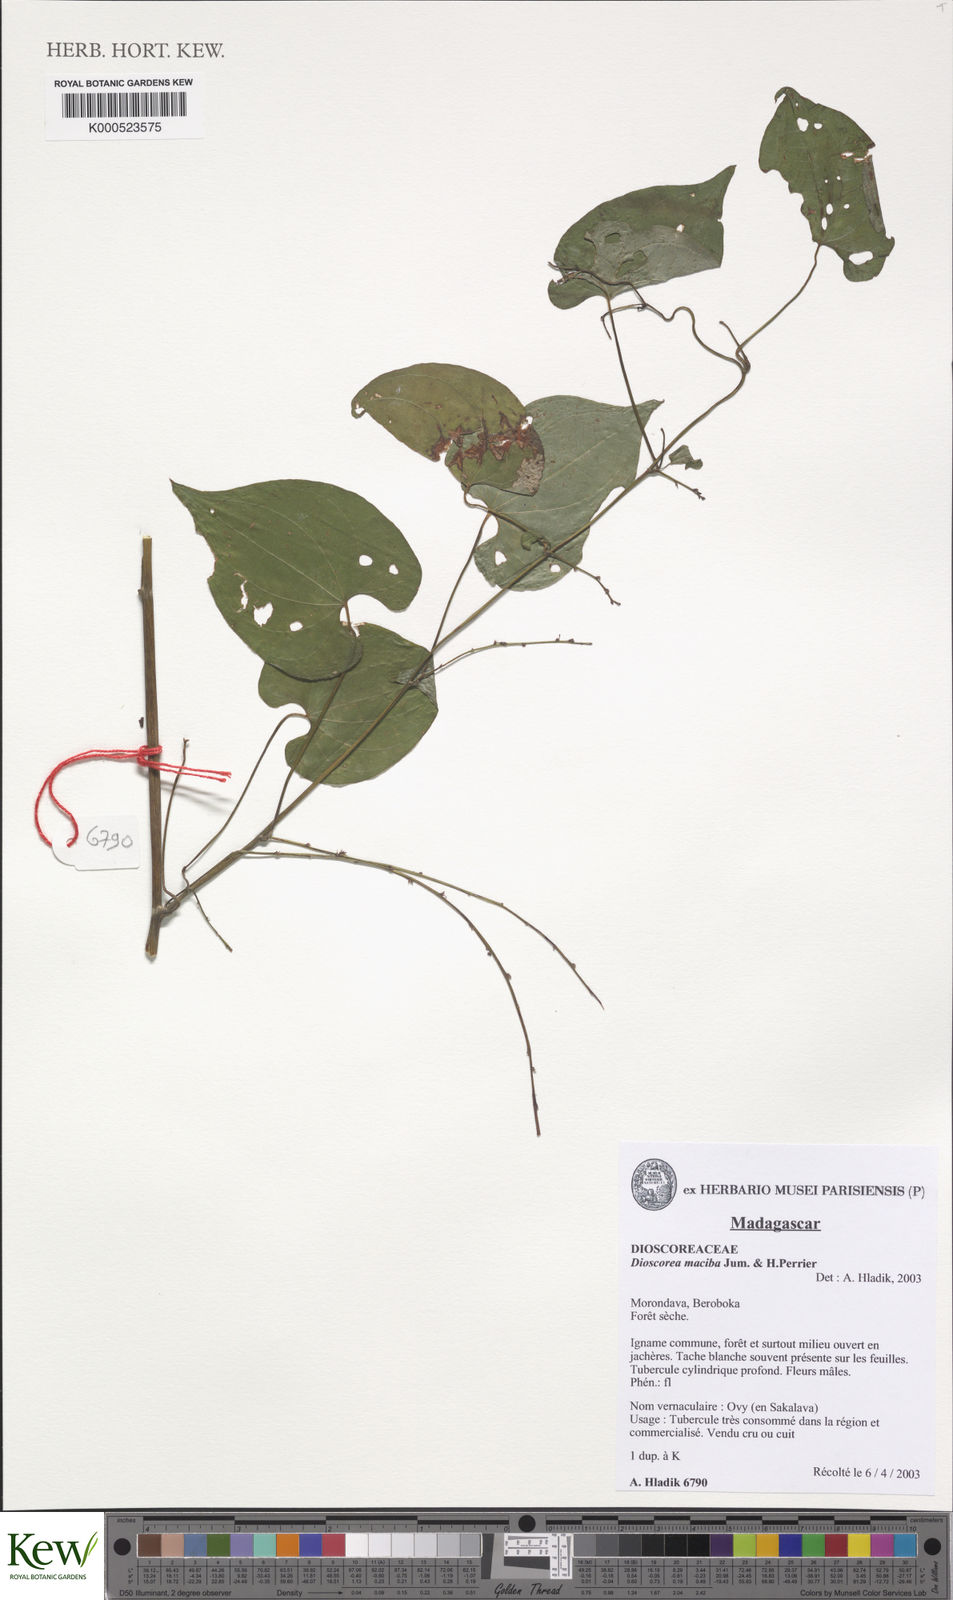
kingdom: Plantae
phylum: Tracheophyta
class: Liliopsida
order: Dioscoreales
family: Dioscoreaceae
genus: Dioscorea
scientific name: Dioscorea maciba
